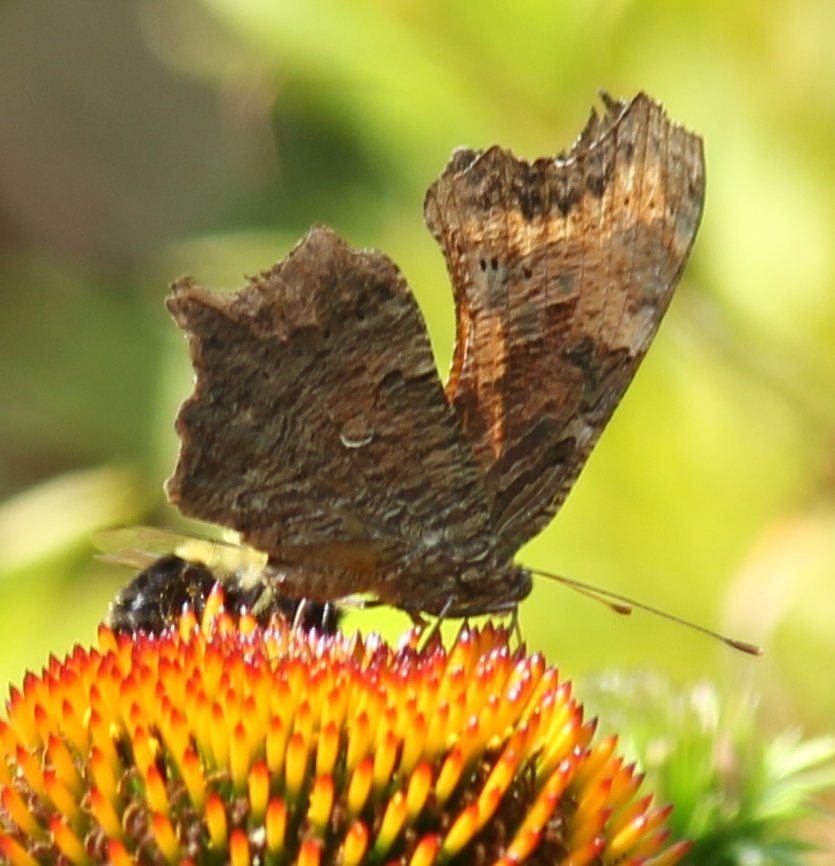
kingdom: Animalia
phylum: Arthropoda
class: Insecta
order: Lepidoptera
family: Nymphalidae
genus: Polygonia
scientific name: Polygonia progne
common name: Gray Comma
